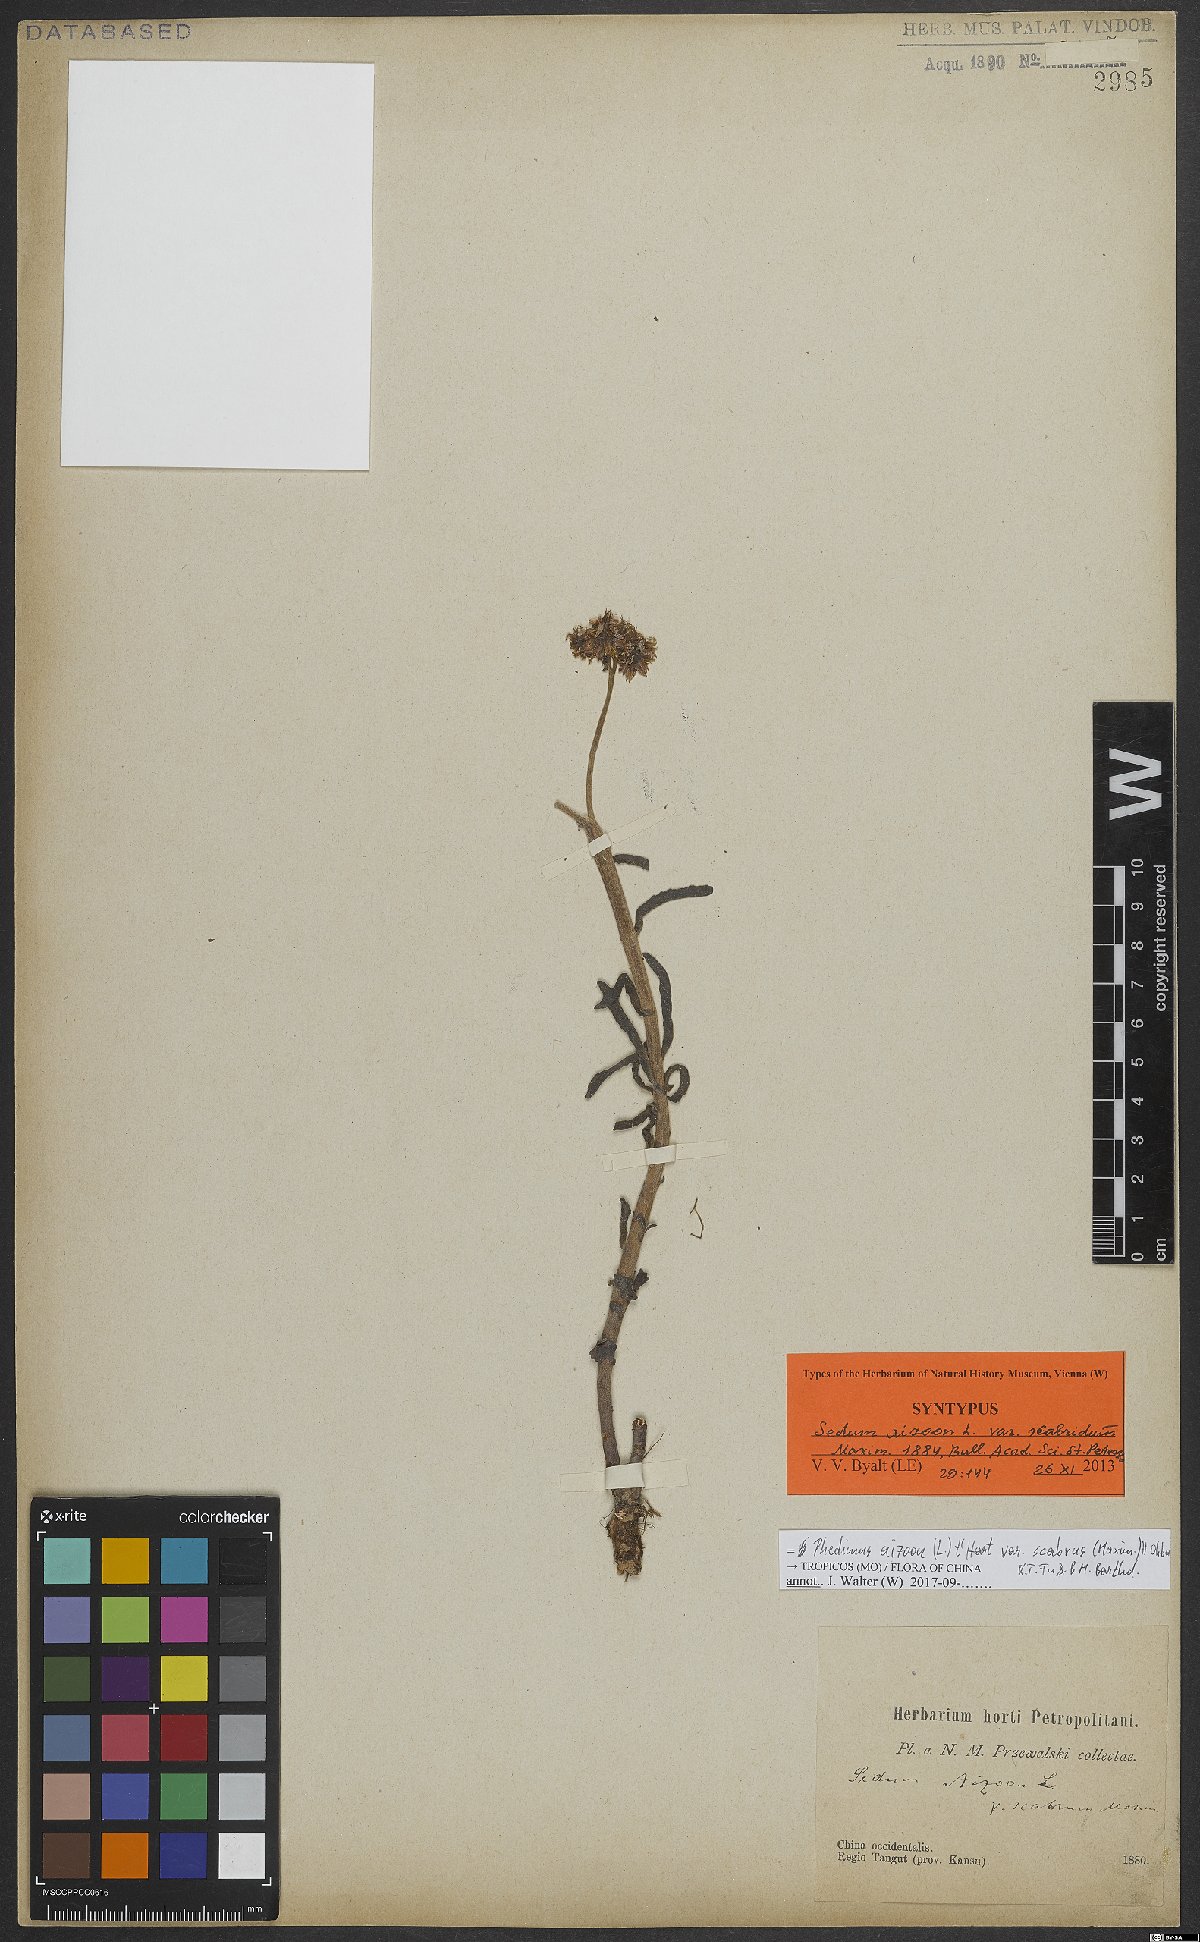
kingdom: Plantae
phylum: Tracheophyta
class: Magnoliopsida
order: Saxifragales
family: Crassulaceae
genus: Phedimus
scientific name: Phedimus aizoon
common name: Orpin aizoon
